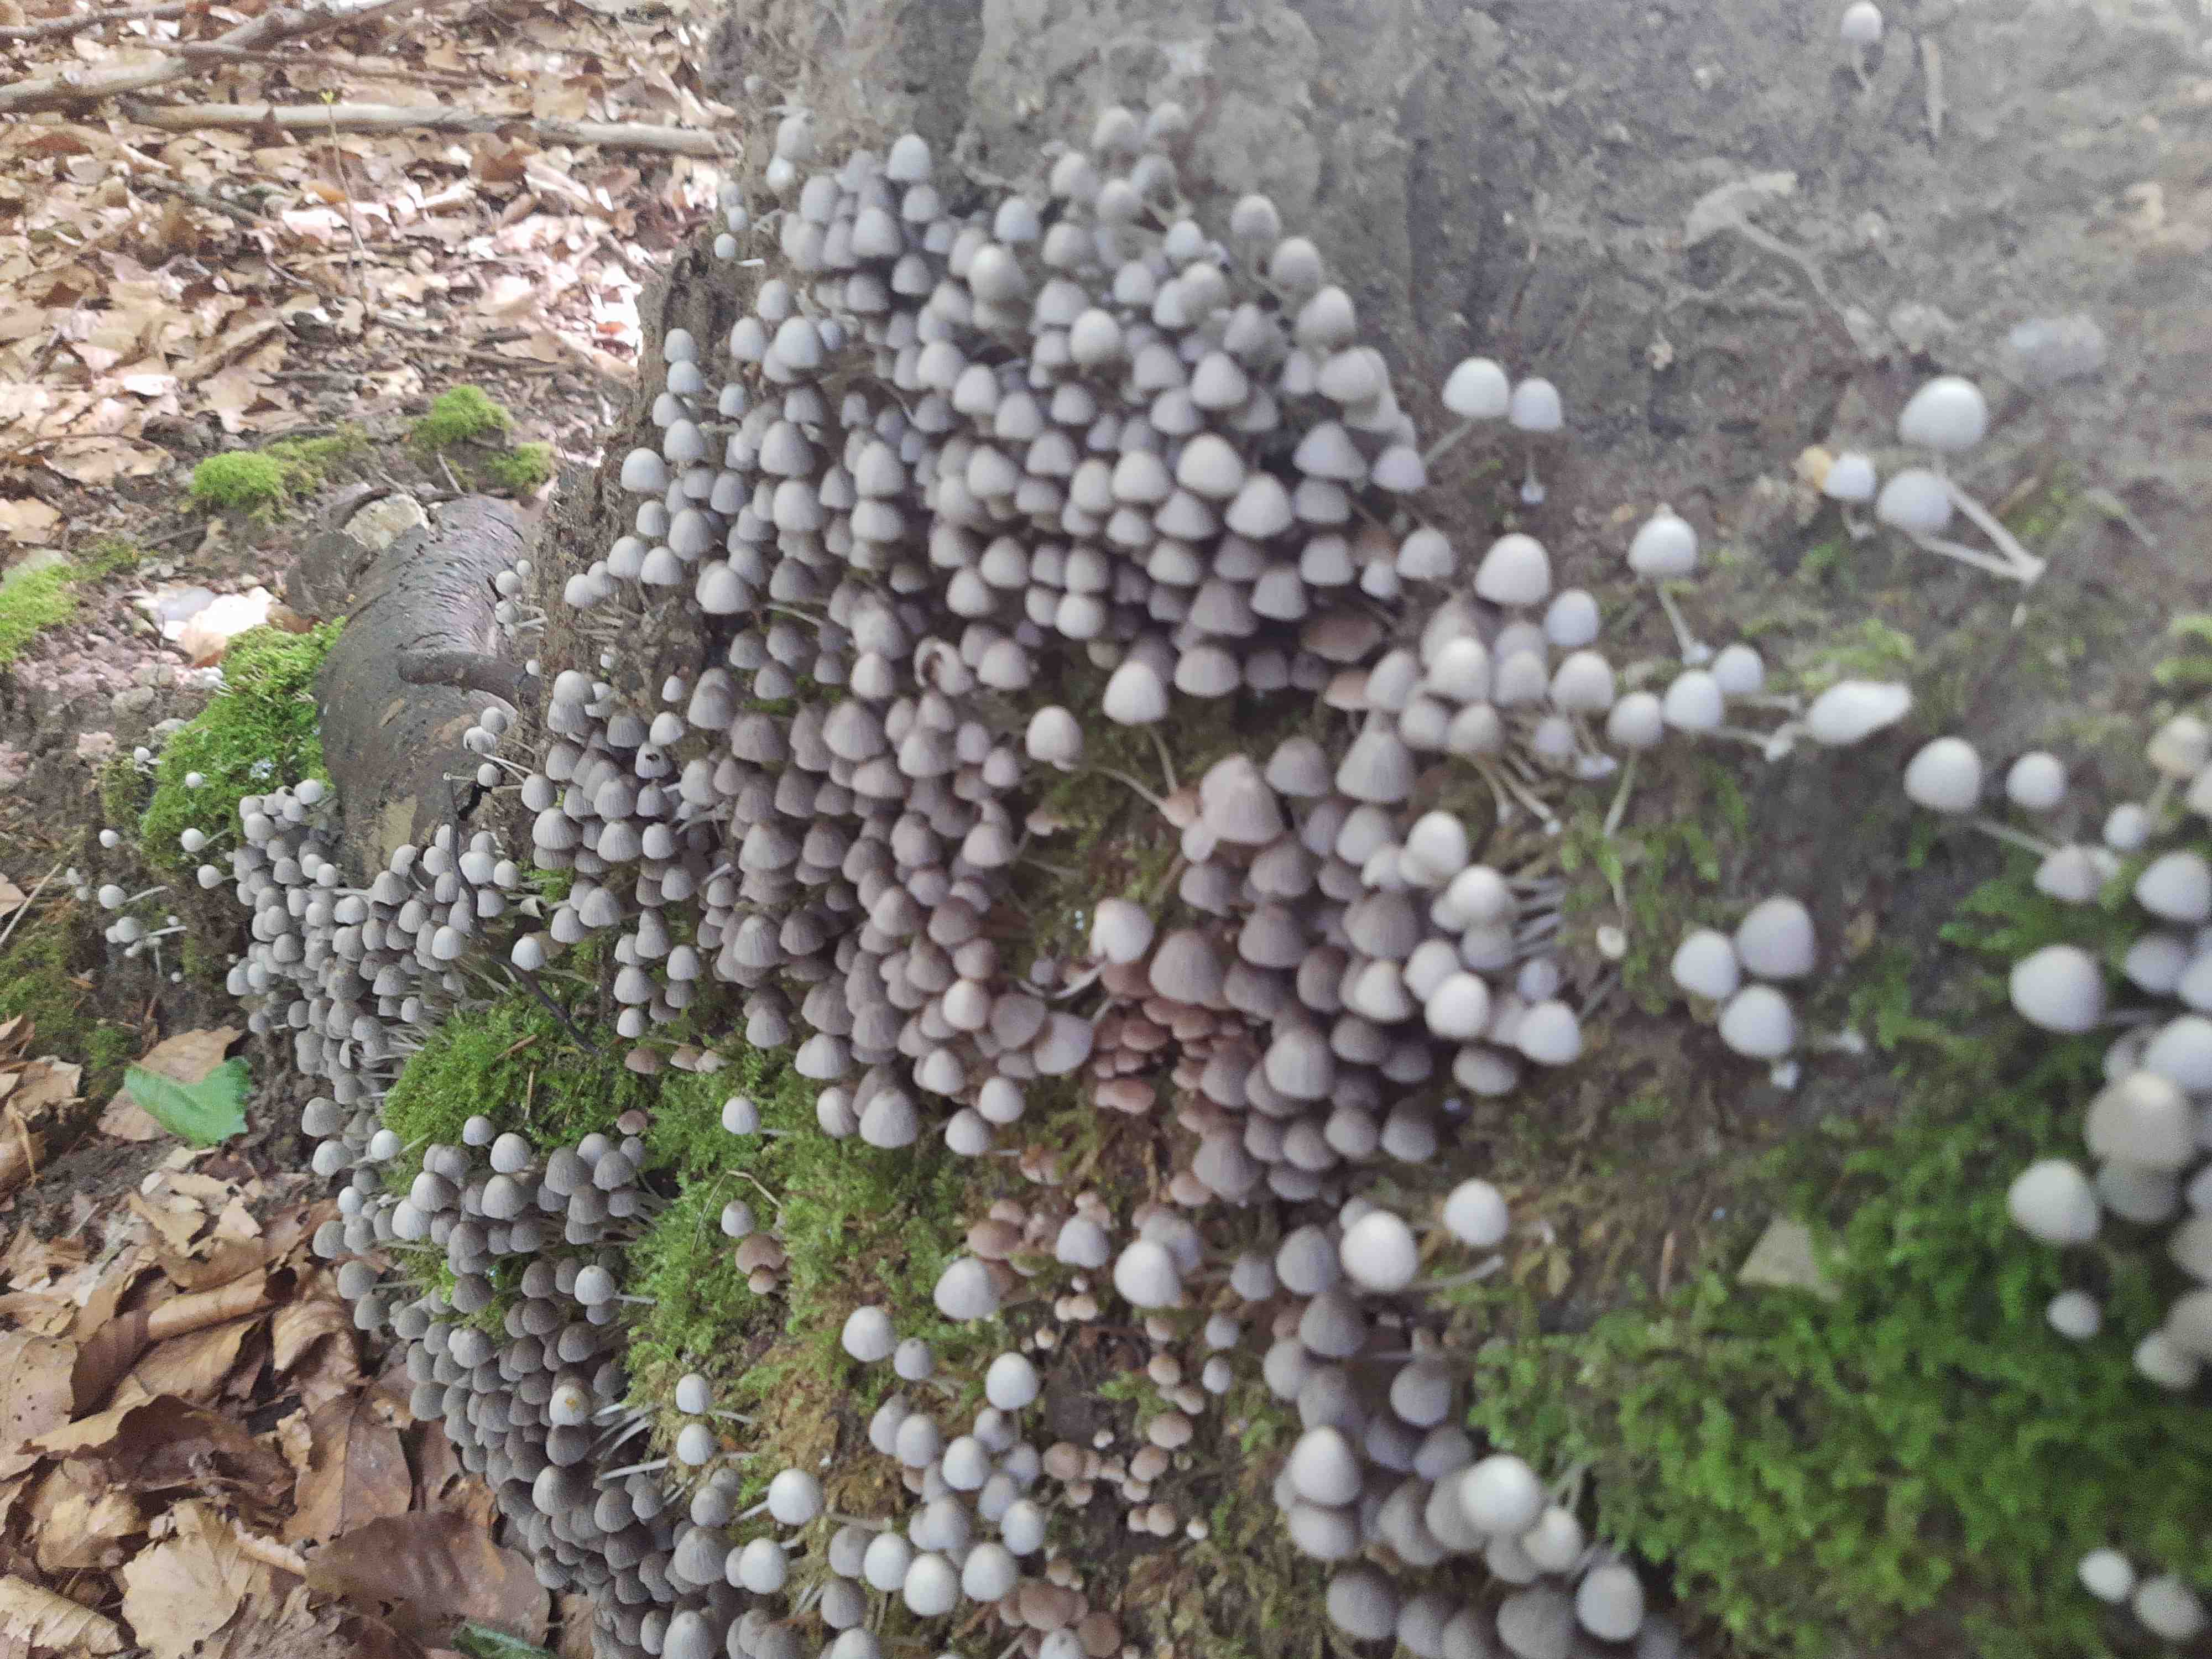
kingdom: Fungi
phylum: Basidiomycota
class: Agaricomycetes
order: Agaricales
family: Psathyrellaceae
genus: Coprinellus
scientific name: Coprinellus disseminatus
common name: bredsået blækhat
